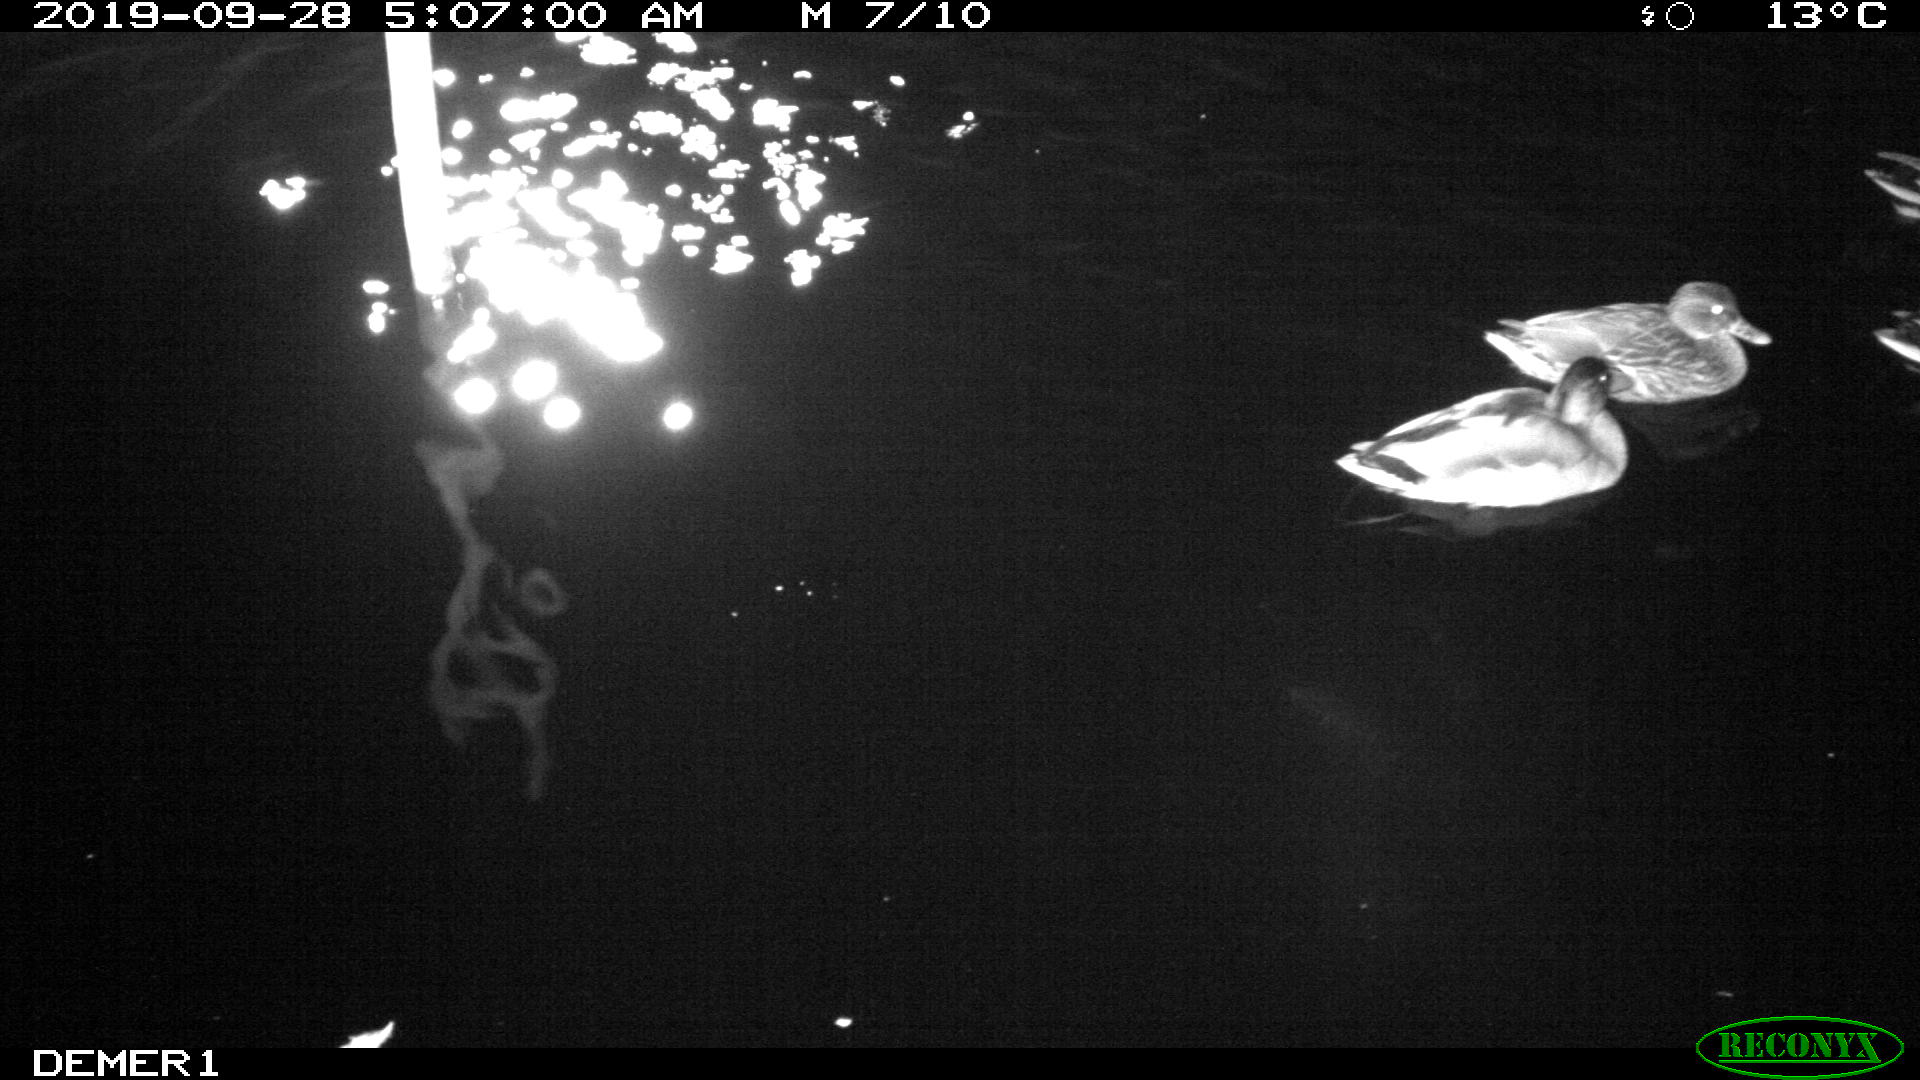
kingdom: Animalia
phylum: Chordata
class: Aves
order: Anseriformes
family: Anatidae
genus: Anas
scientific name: Anas platyrhynchos
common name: Mallard
